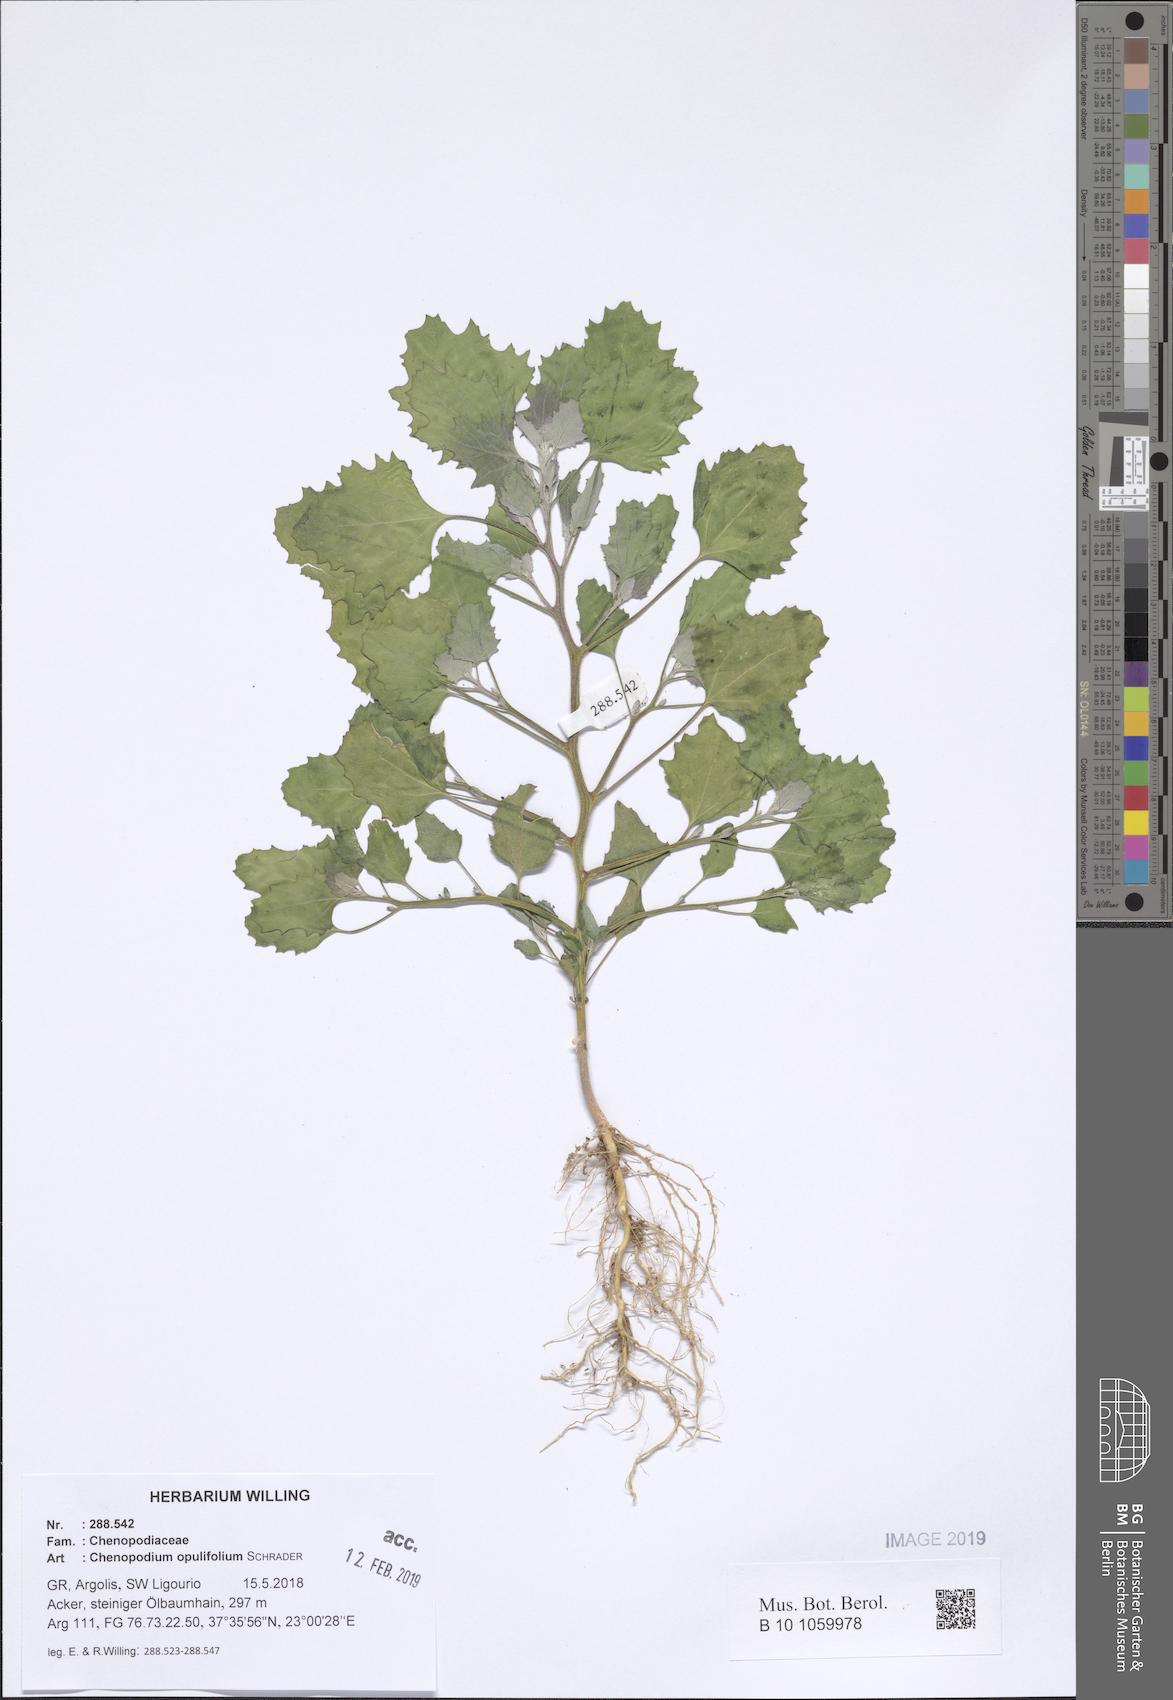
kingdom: Plantae
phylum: Tracheophyta
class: Magnoliopsida
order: Caryophyllales
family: Amaranthaceae
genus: Chenopodiastrum
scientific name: Chenopodiastrum murale
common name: Sowbane
